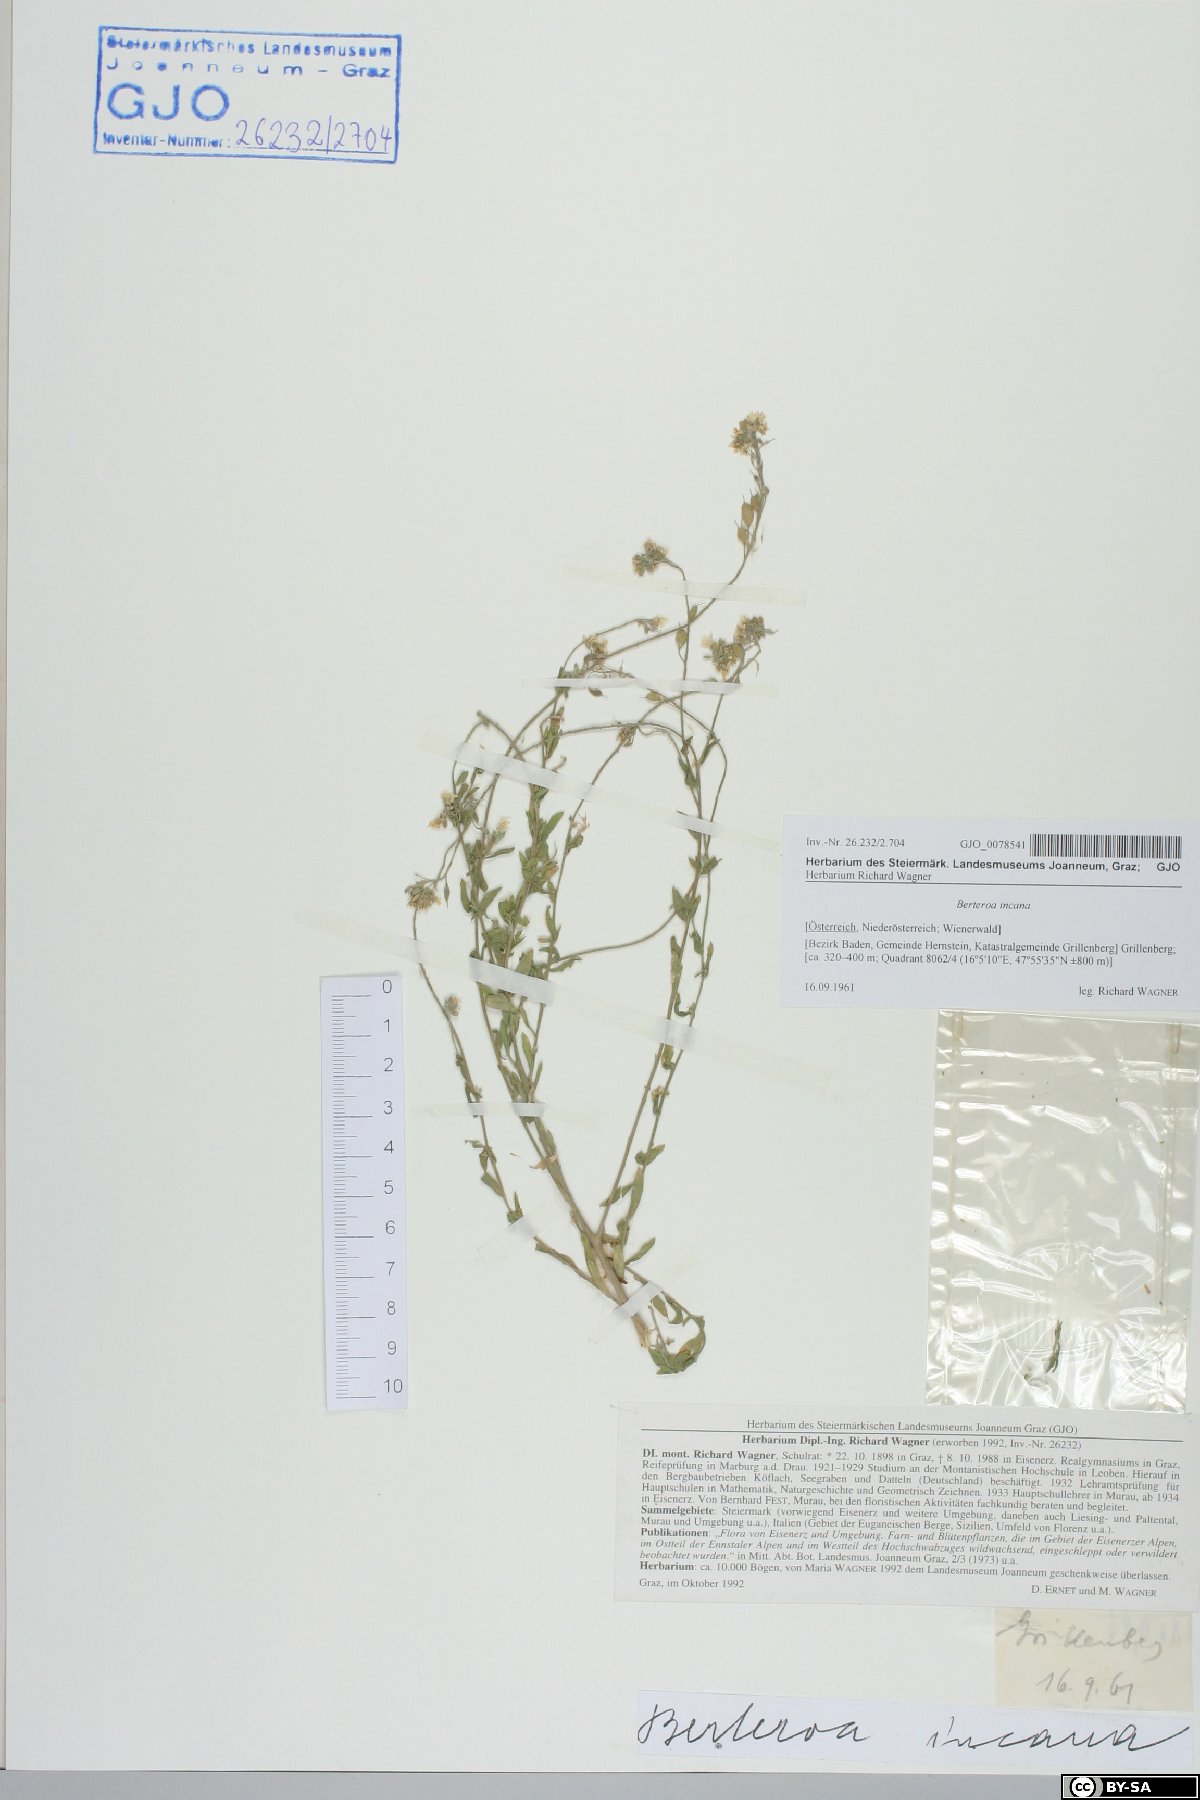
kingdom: Plantae
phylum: Tracheophyta
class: Magnoliopsida
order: Brassicales
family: Brassicaceae
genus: Berteroa
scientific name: Berteroa incana
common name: Hoary alison
